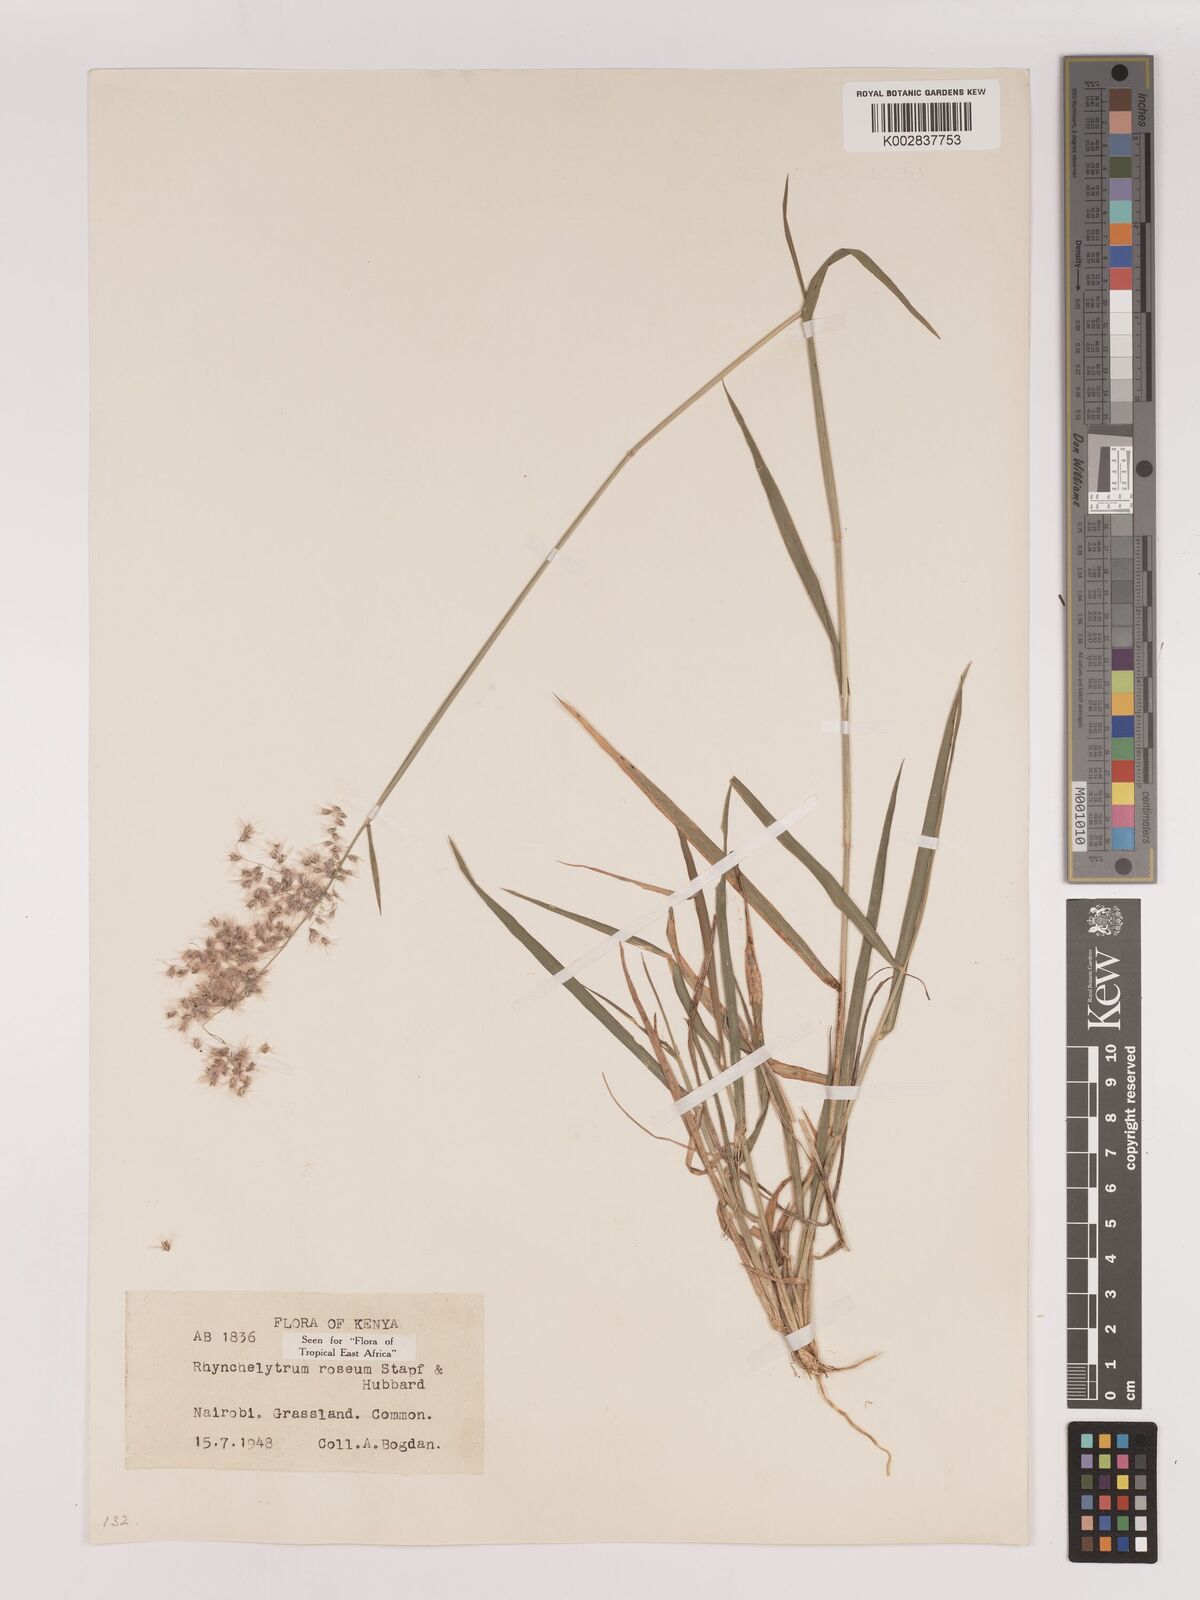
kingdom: Plantae
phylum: Tracheophyta
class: Liliopsida
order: Poales
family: Poaceae
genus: Melinis
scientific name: Melinis repens
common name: Rose natal grass
